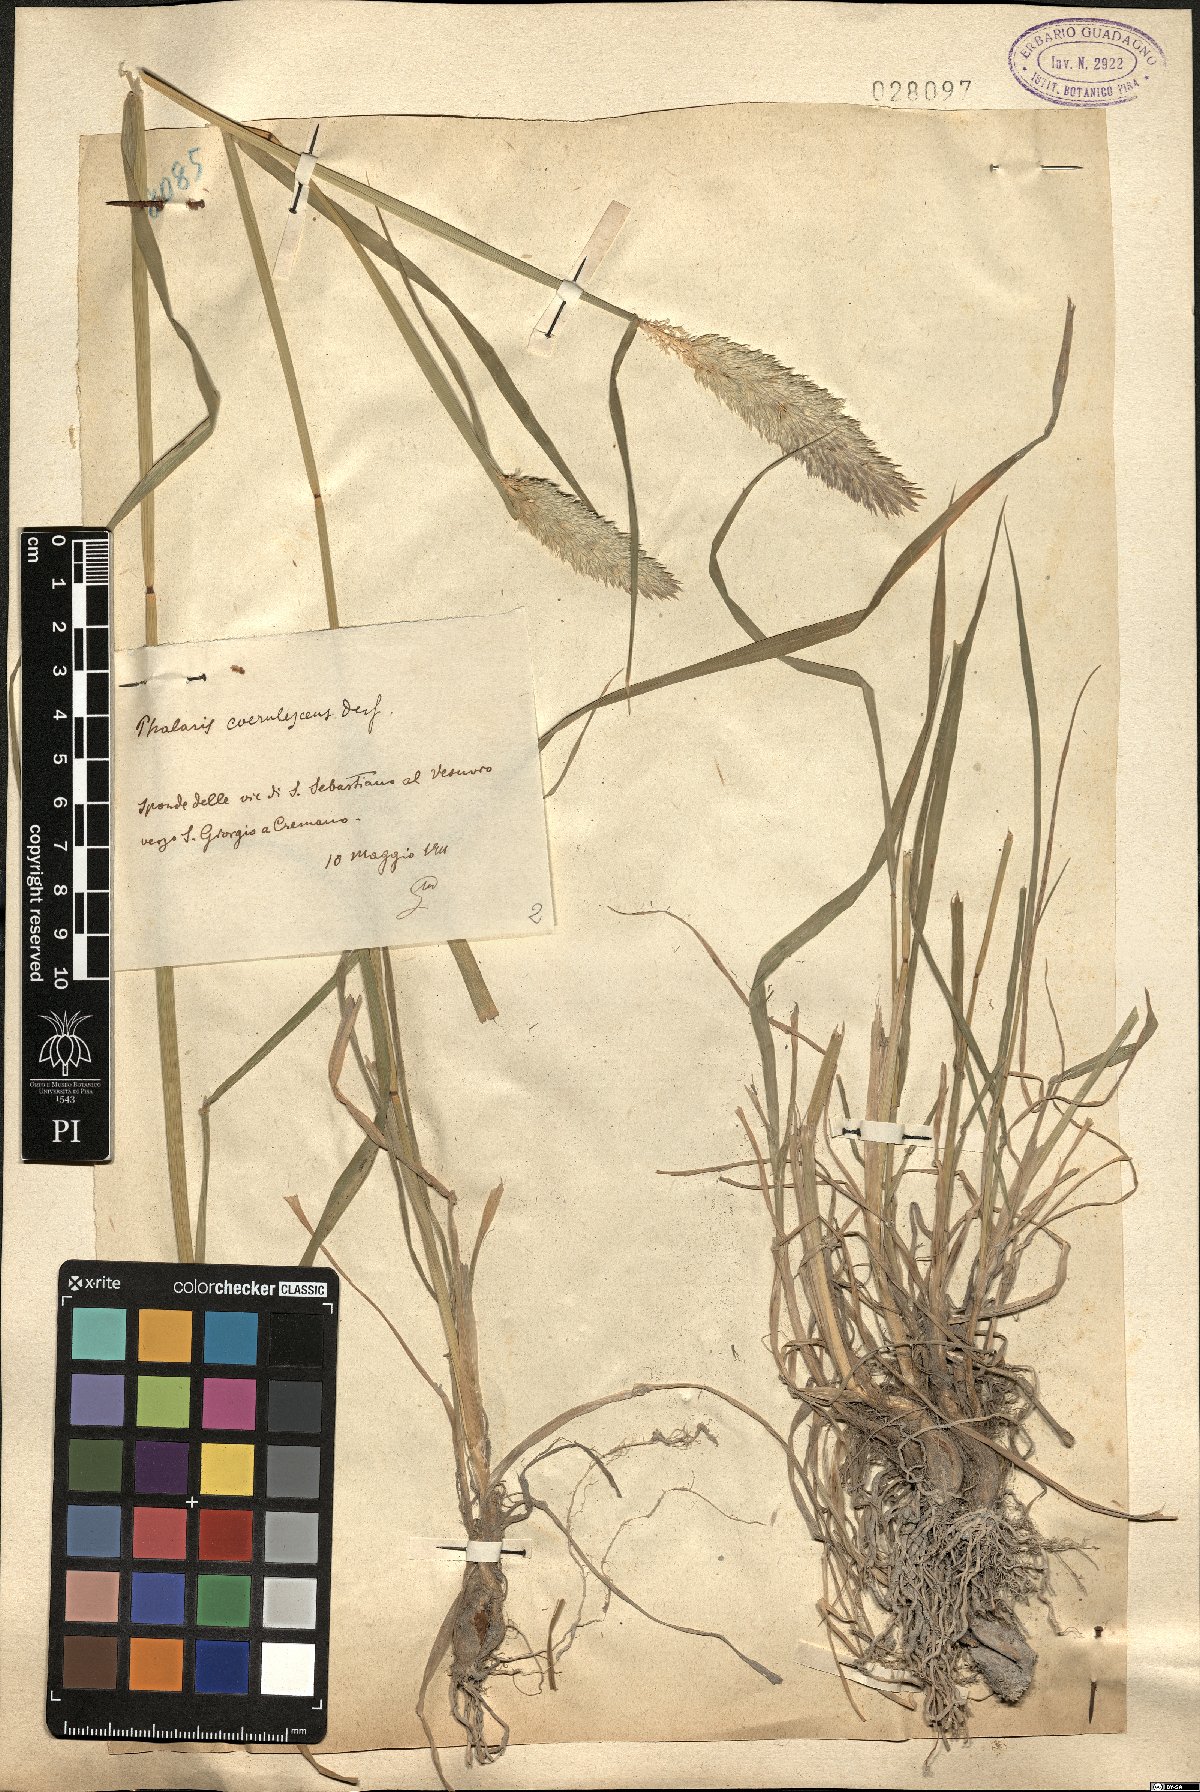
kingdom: Plantae
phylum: Tracheophyta
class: Liliopsida
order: Poales
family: Poaceae
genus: Phalaris
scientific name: Phalaris coerulescens
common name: Sunolgrass
